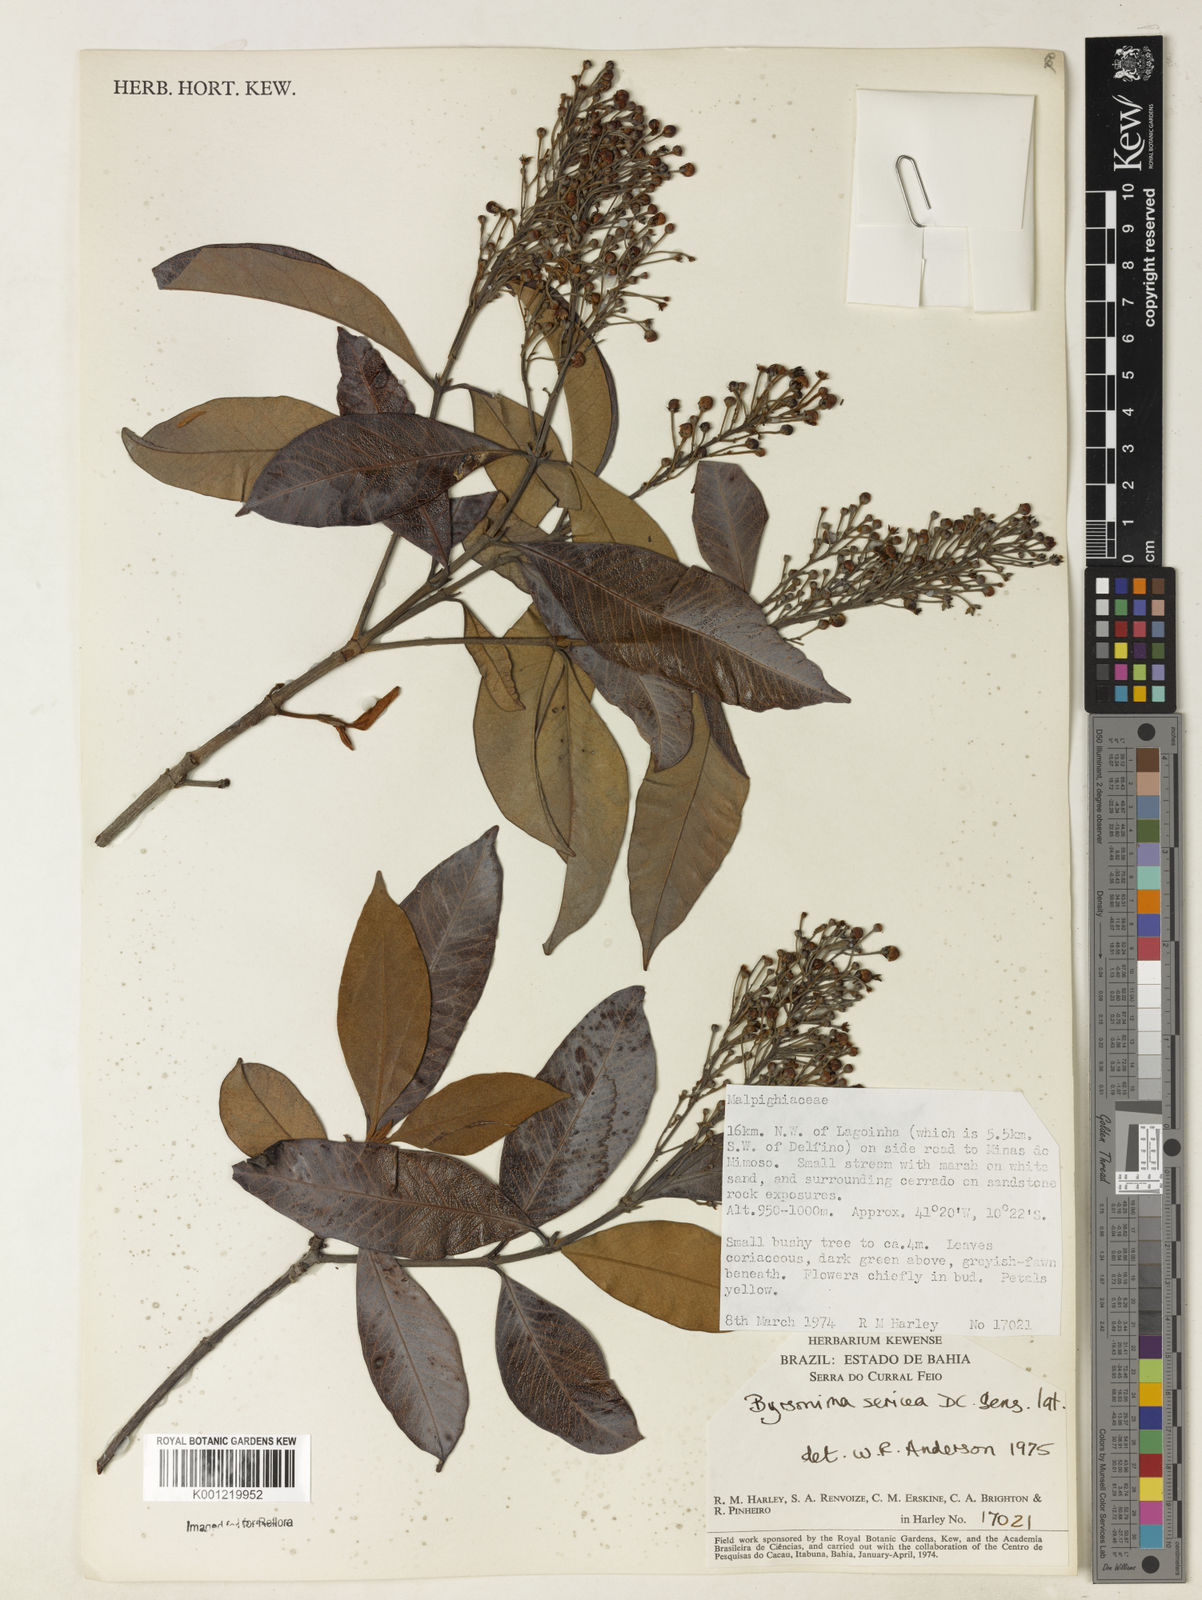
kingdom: Plantae
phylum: Tracheophyta
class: Magnoliopsida
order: Malpighiales
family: Malpighiaceae
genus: Byrsonima
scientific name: Byrsonima sericea
